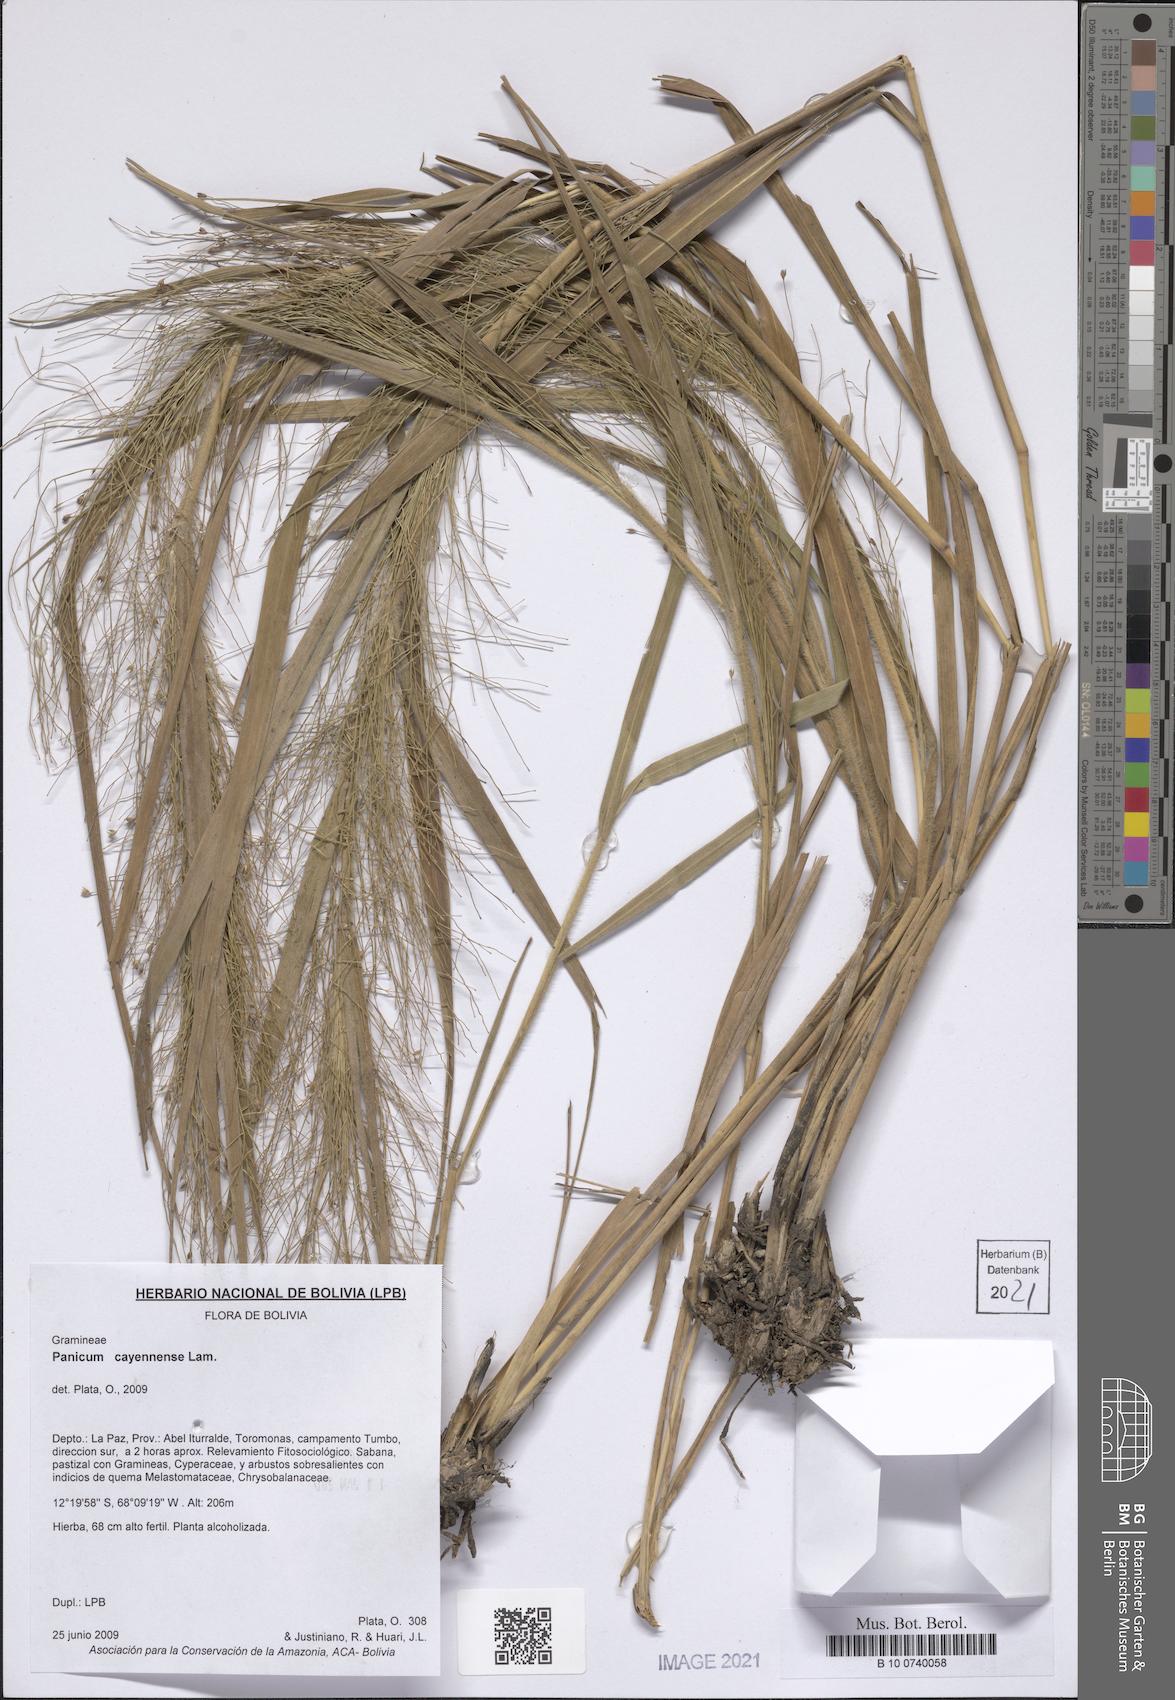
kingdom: Plantae
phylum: Tracheophyta
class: Liliopsida
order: Poales
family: Poaceae
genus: Panicum
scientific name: Panicum cayennense
